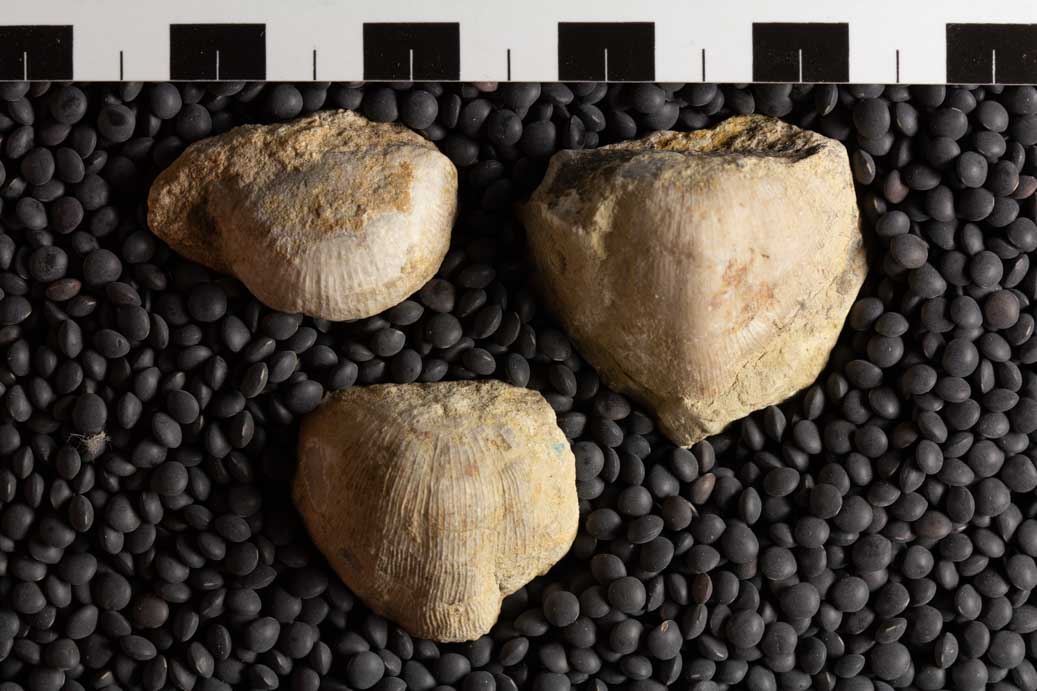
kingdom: Animalia
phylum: Brachiopoda
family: Strophomenidae
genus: Nasutimena
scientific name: Nasutimena Strophomena fluctuosa
